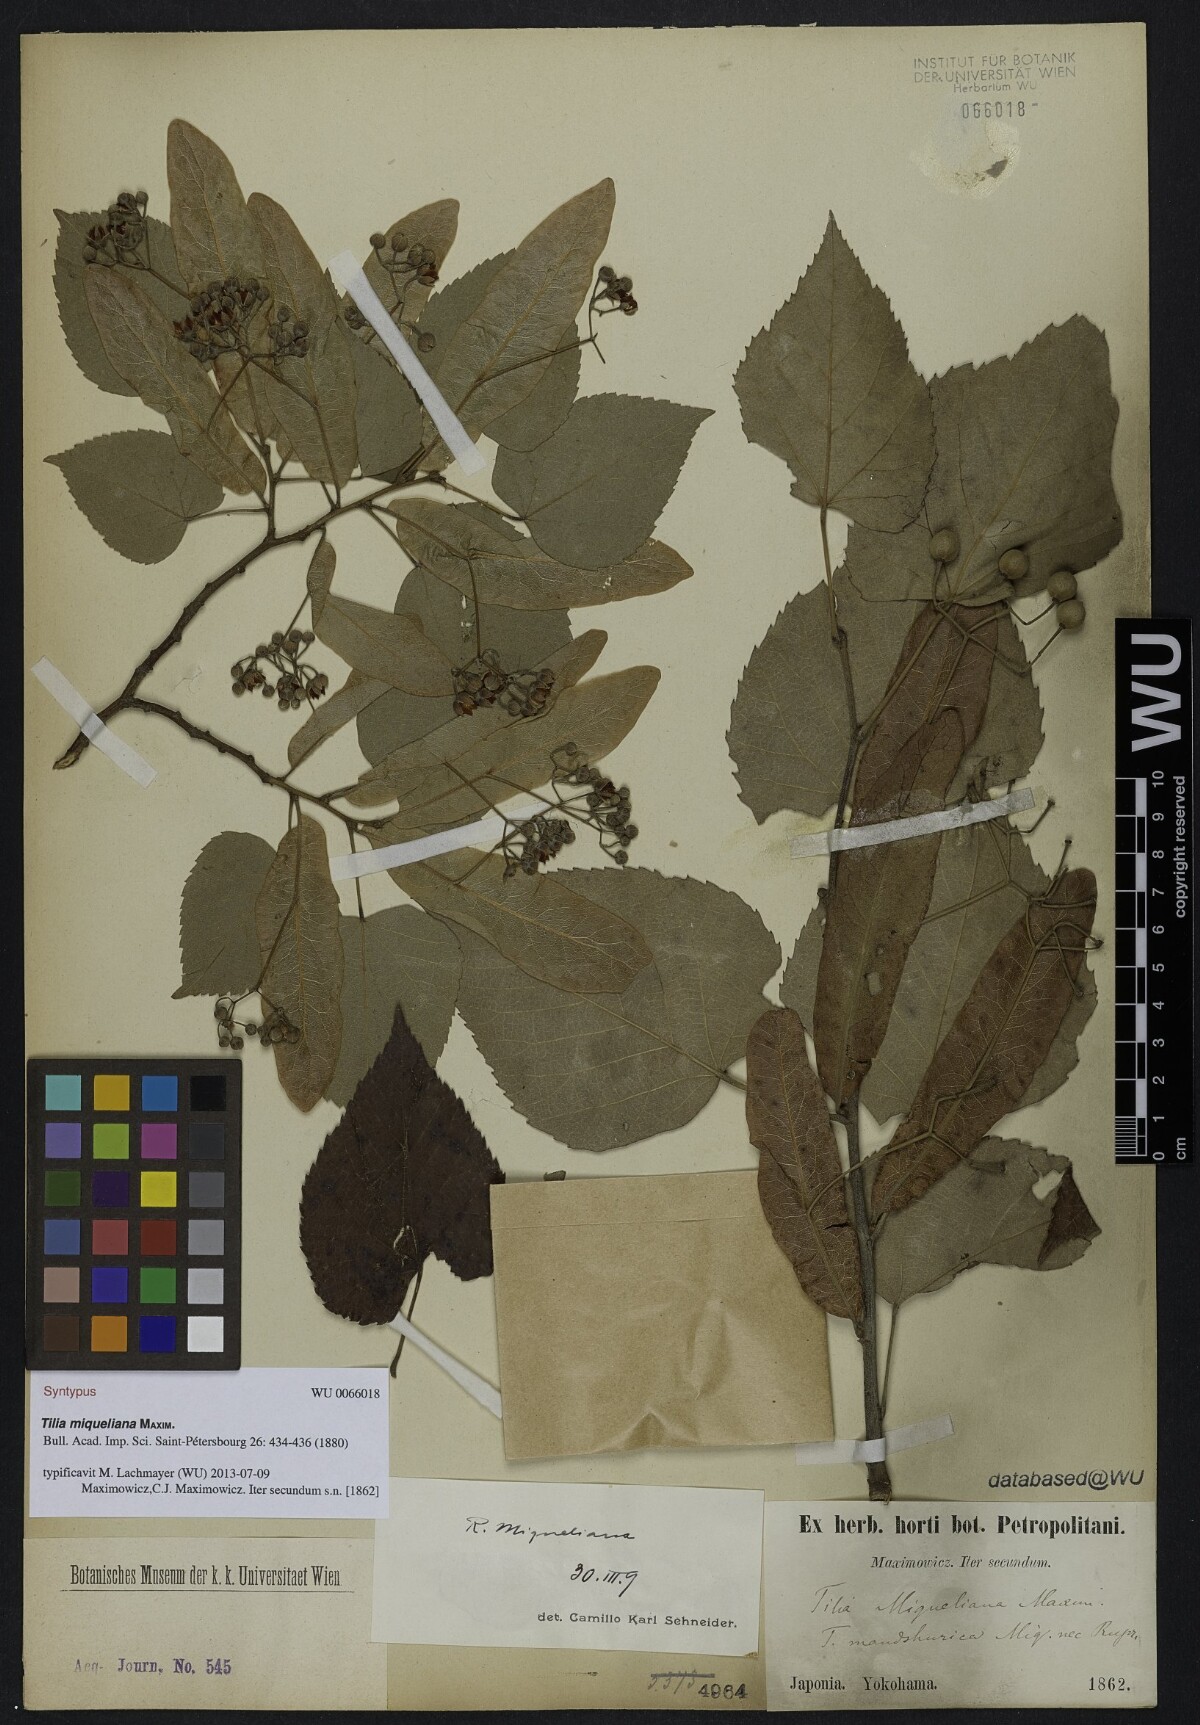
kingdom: Plantae
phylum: Tracheophyta
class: Magnoliopsida
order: Malvales
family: Malvaceae
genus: Tilia
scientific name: Tilia miqueliana
